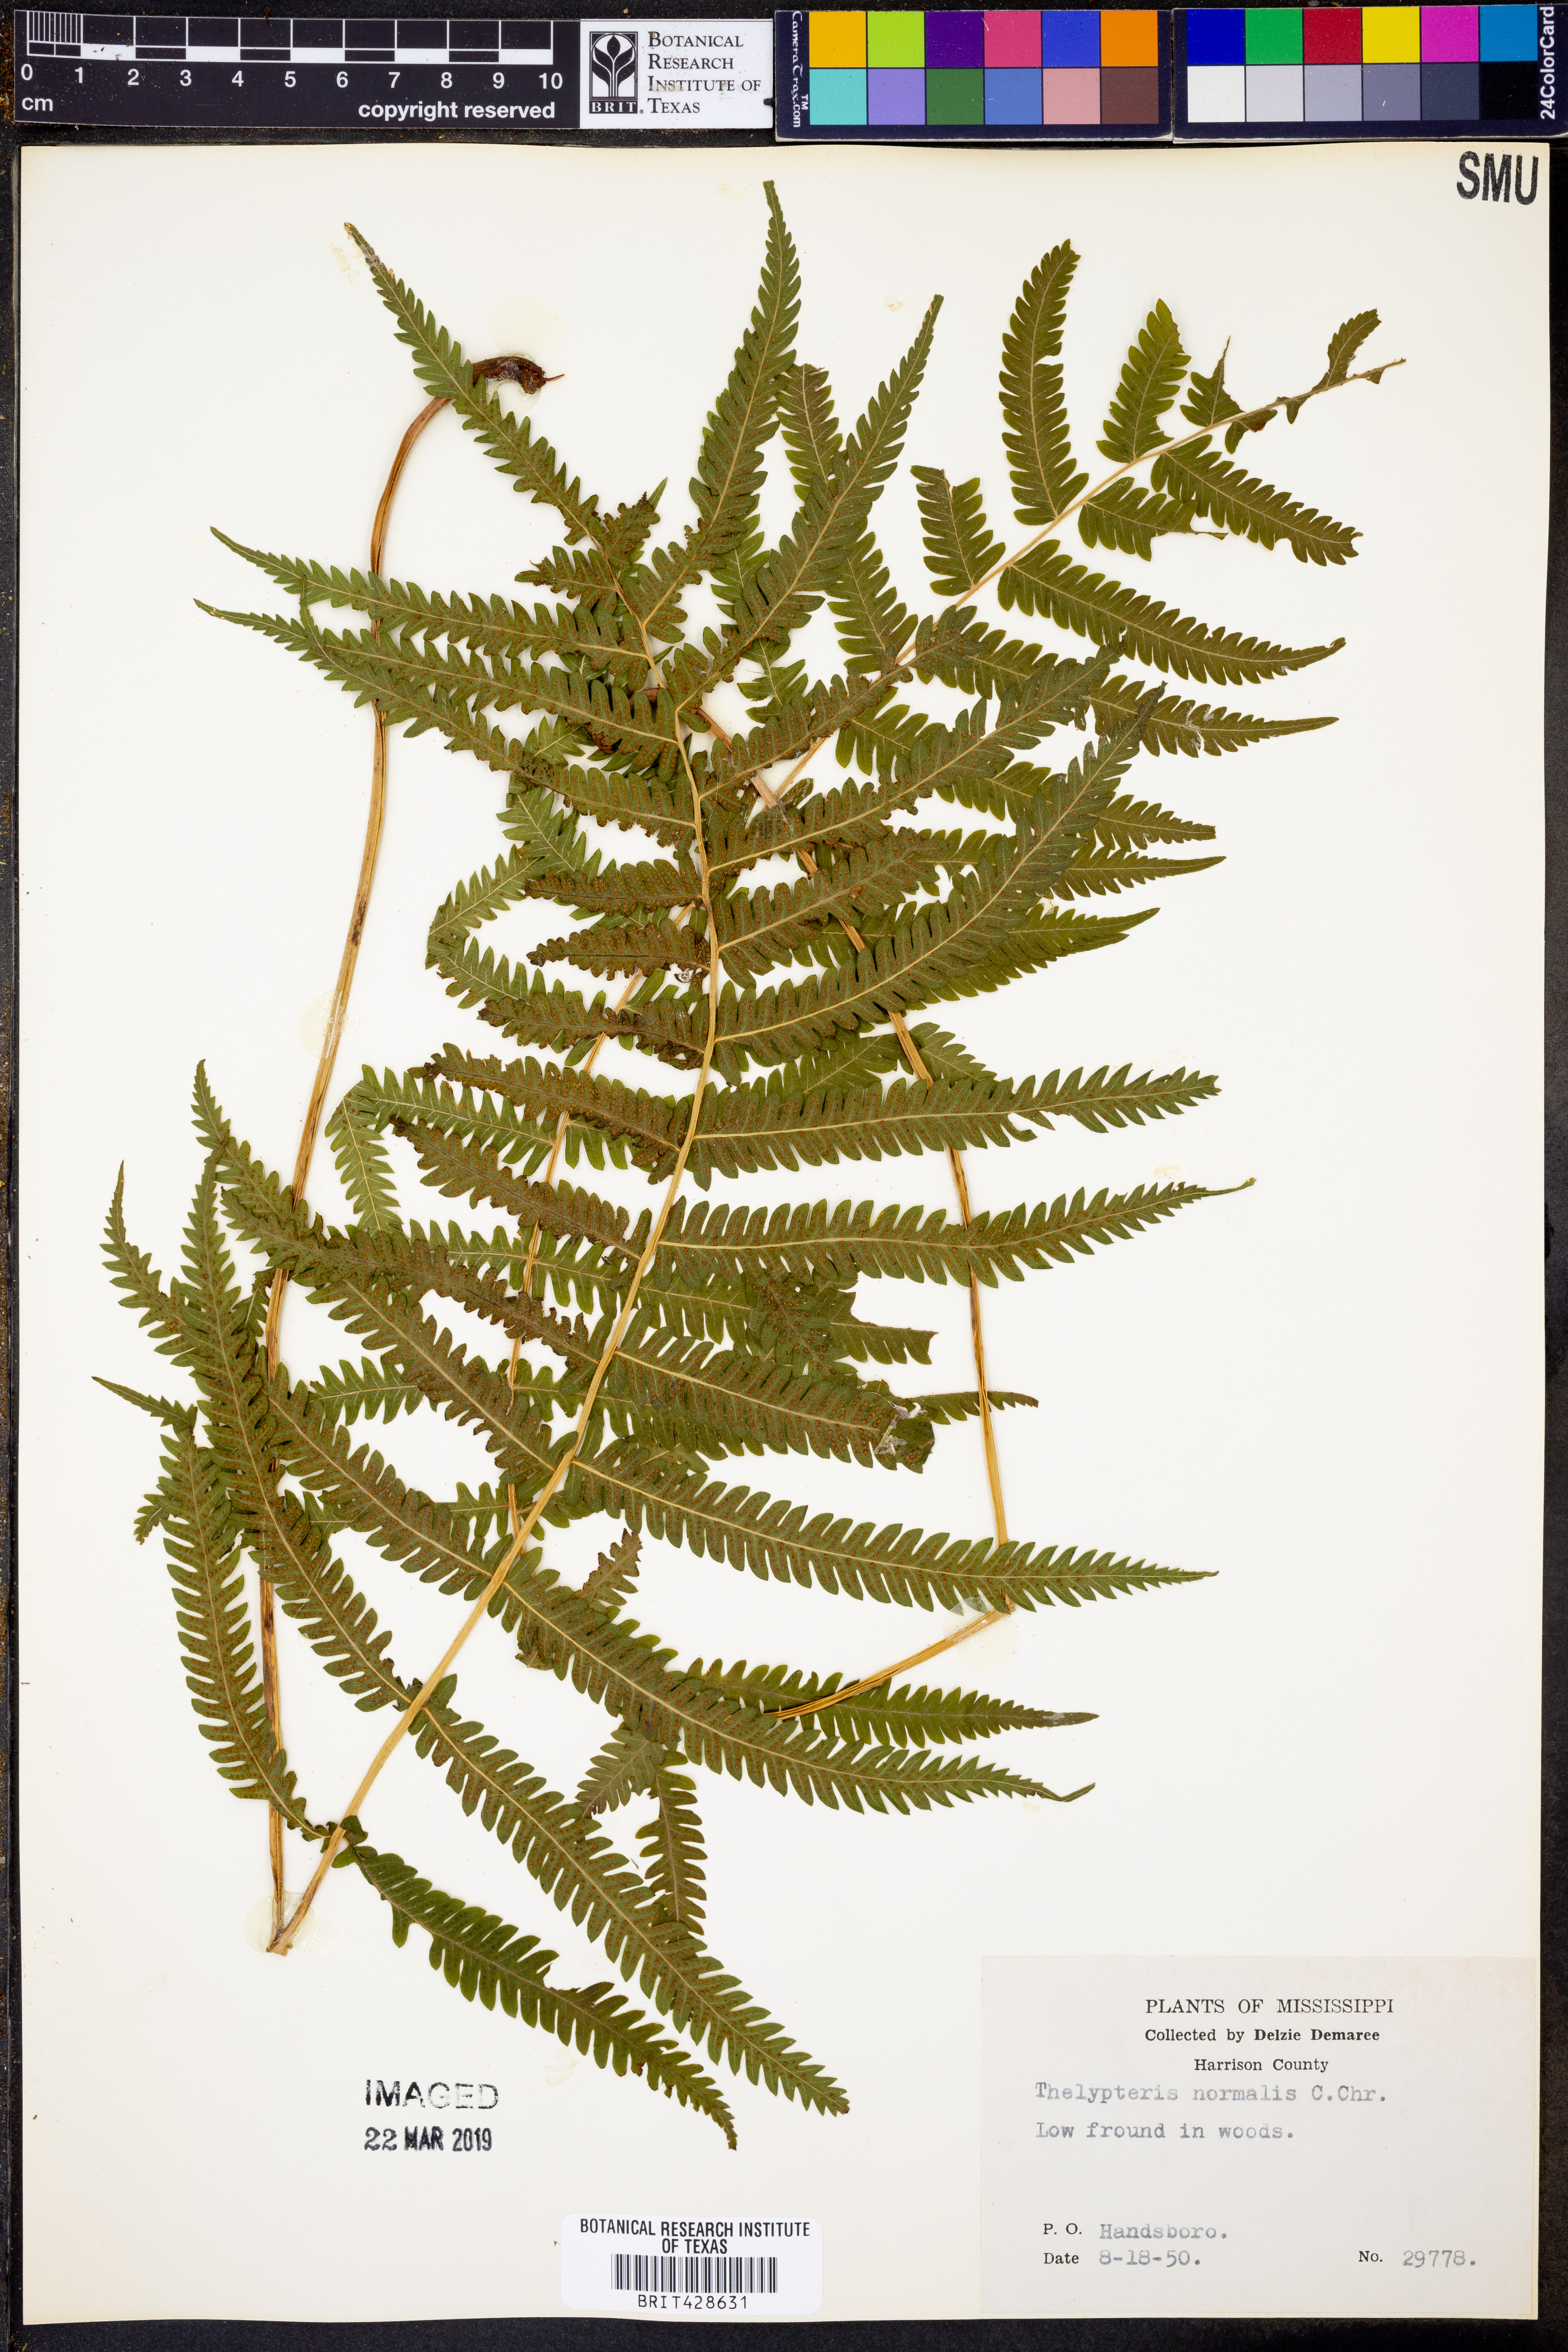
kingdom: Plantae
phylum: Tracheophyta
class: Polypodiopsida
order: Polypodiales
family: Thelypteridaceae
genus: Pelazoneuron
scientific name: Pelazoneuron kunthii
